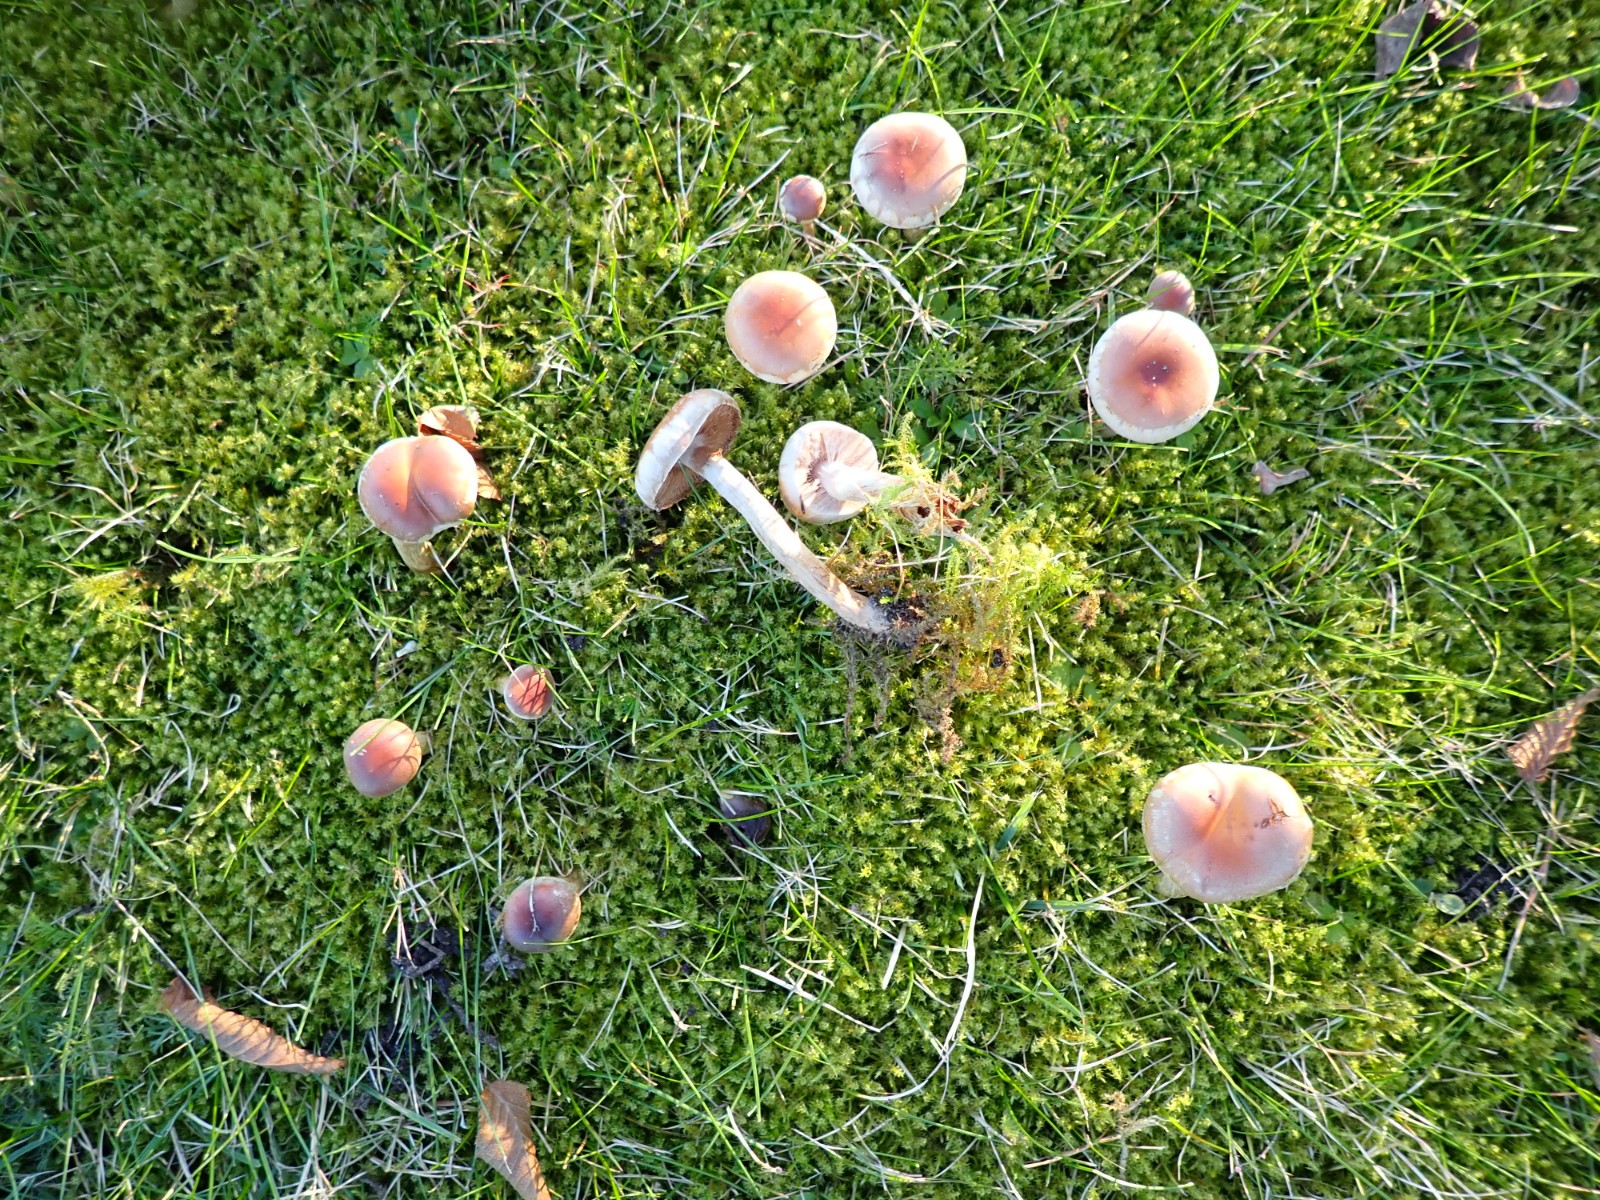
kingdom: Fungi
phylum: Basidiomycota
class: Agaricomycetes
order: Agaricales
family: Hymenogastraceae
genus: Hebeloma
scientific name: Hebeloma mesophaeum
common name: lerbrun tåreblad
